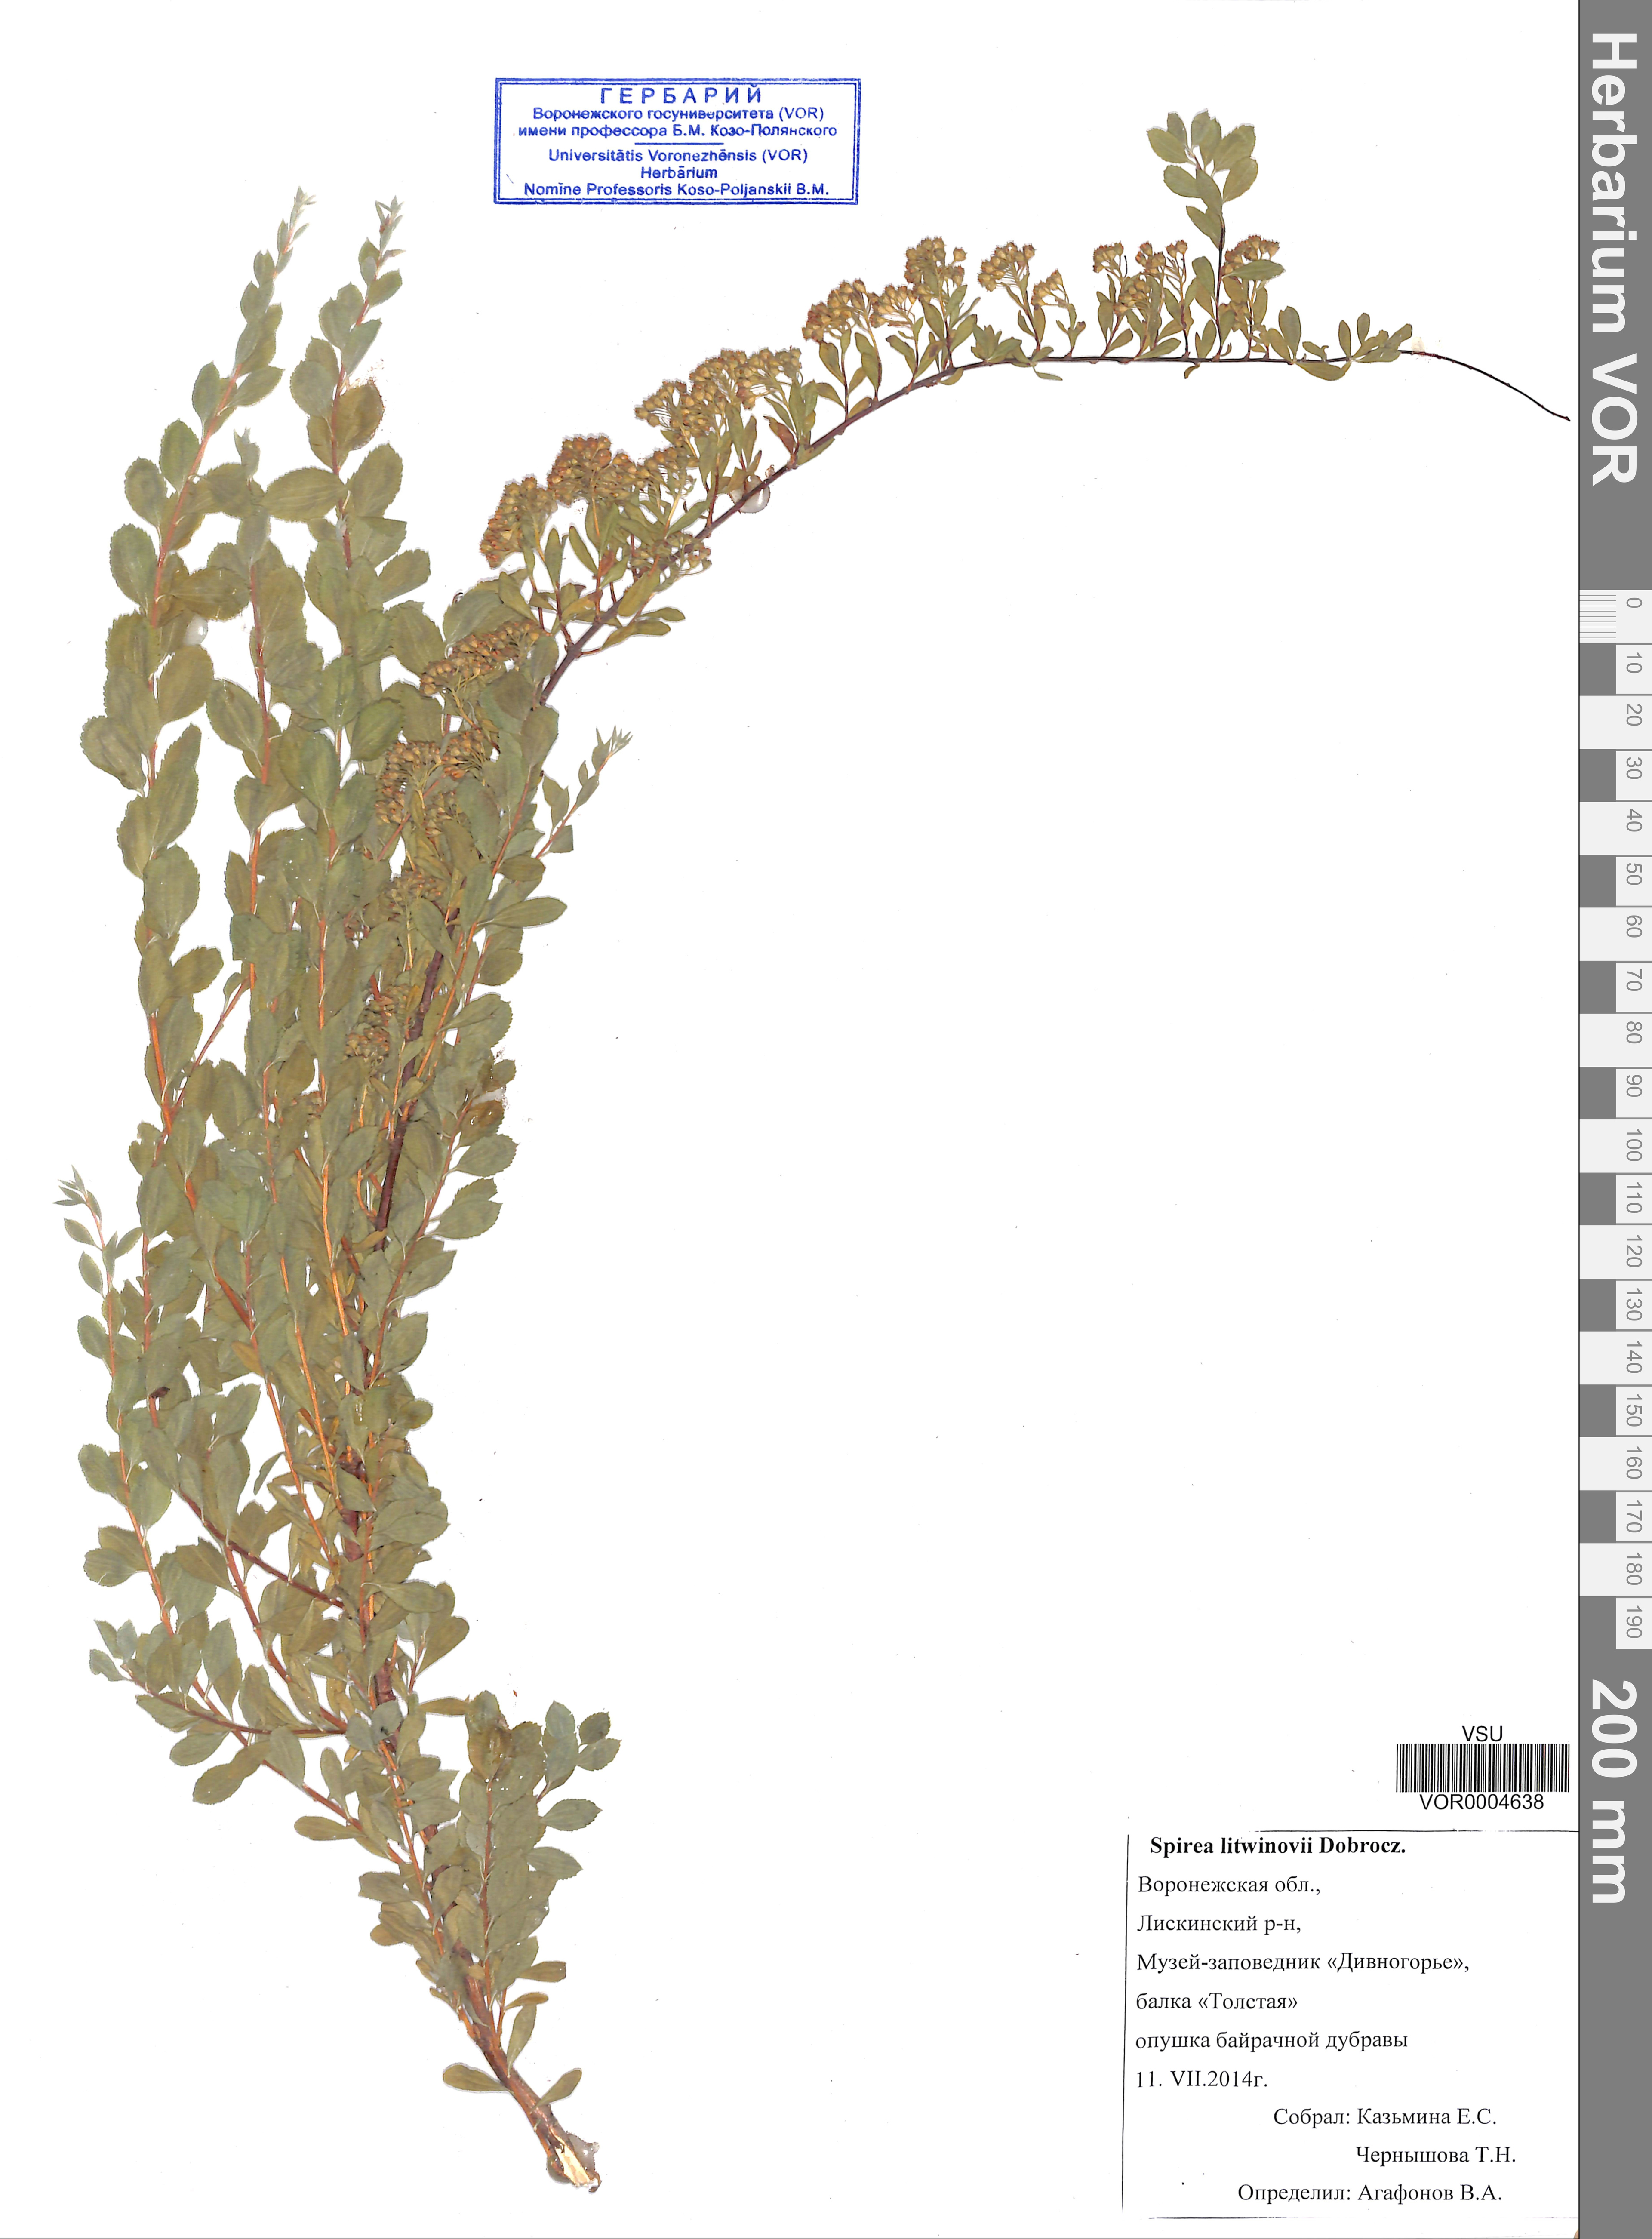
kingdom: Plantae
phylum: Tracheophyta
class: Magnoliopsida
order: Rosales
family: Rosaceae
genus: Spiraea
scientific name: Spiraea crenata
